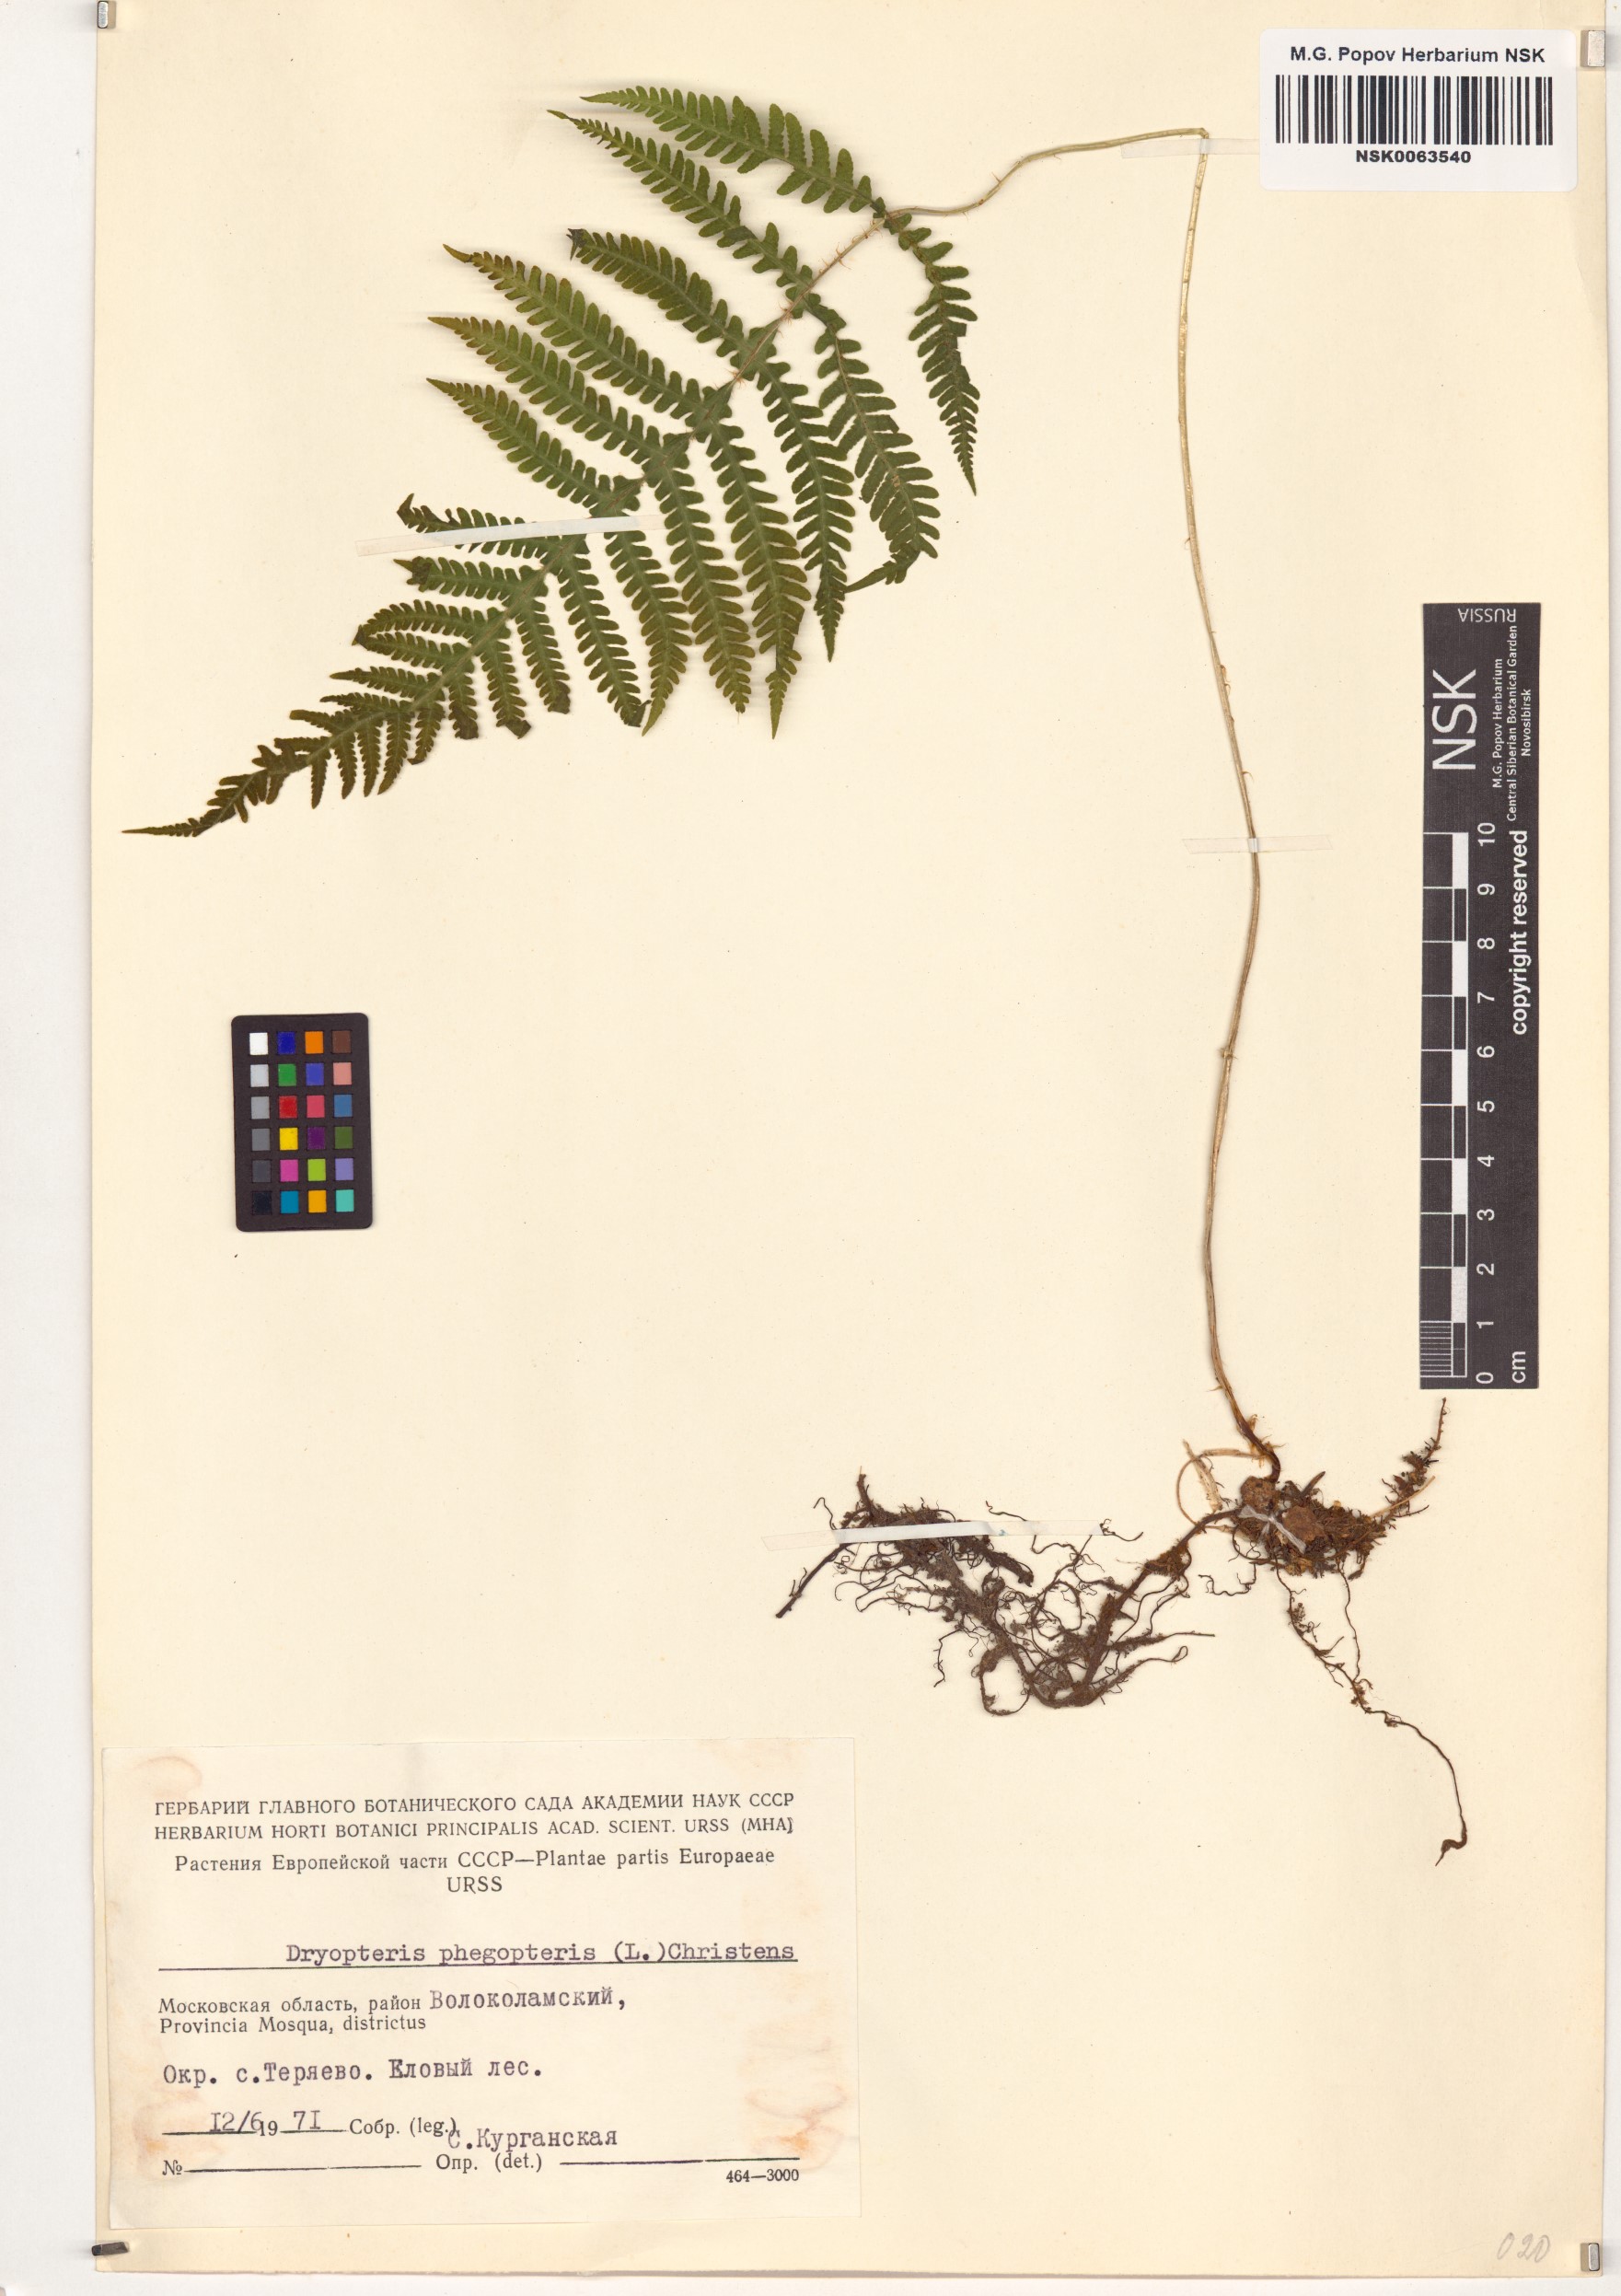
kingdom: Plantae
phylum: Tracheophyta
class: Polypodiopsida
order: Polypodiales
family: Thelypteridaceae
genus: Phegopteris
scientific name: Phegopteris connectilis
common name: Beech fern
